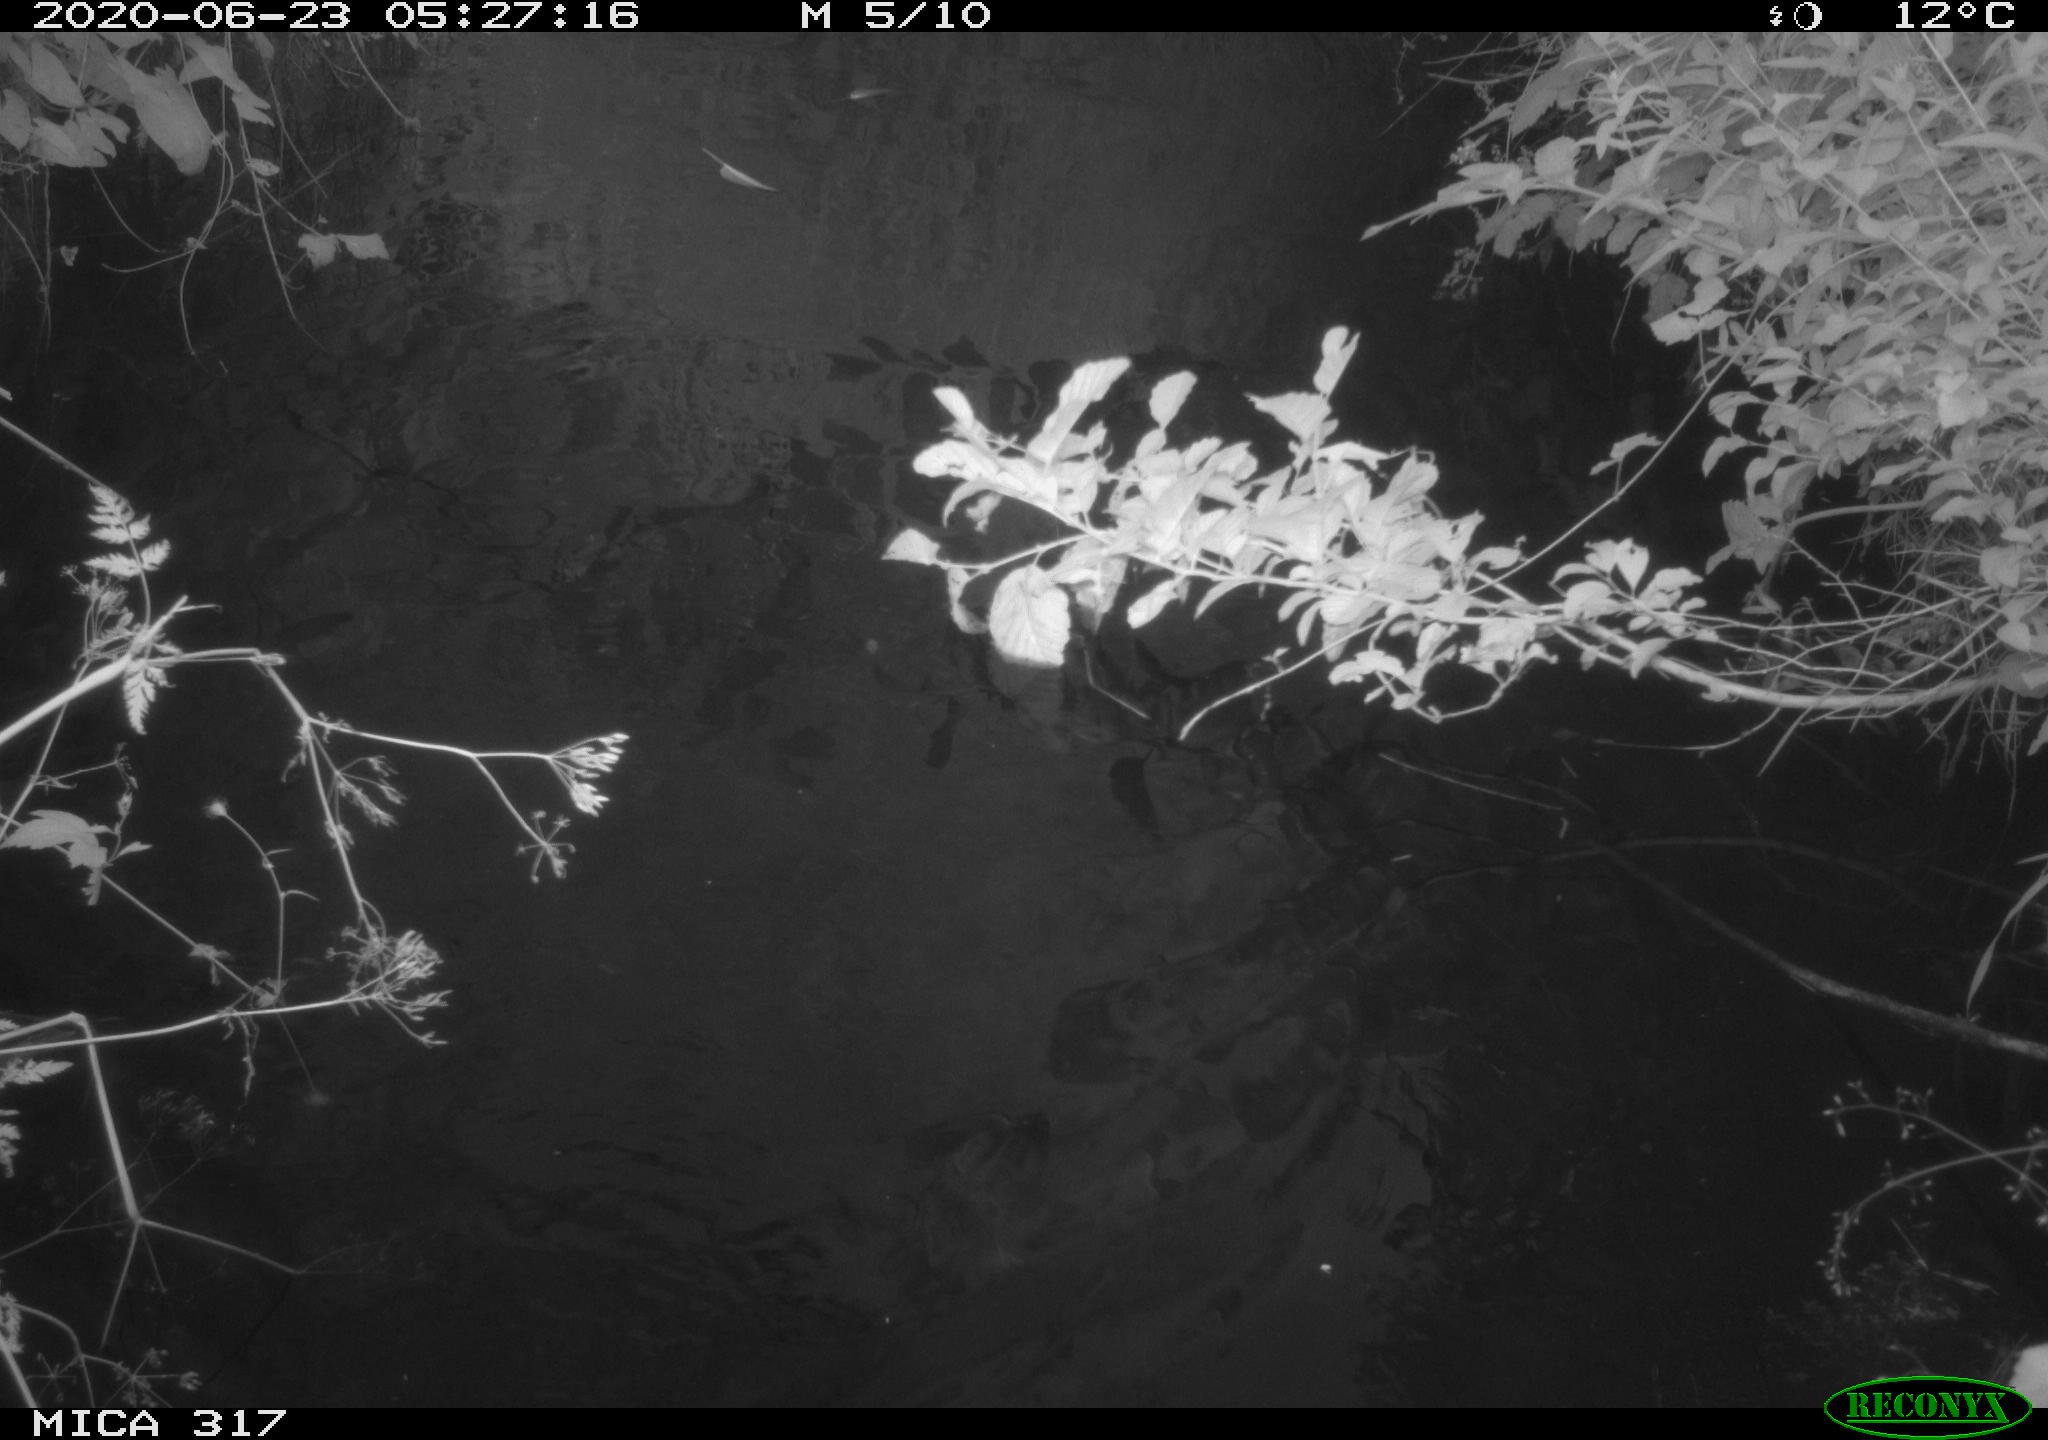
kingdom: Animalia
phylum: Chordata
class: Aves
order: Anseriformes
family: Anatidae
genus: Anas
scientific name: Anas platyrhynchos
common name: Mallard
